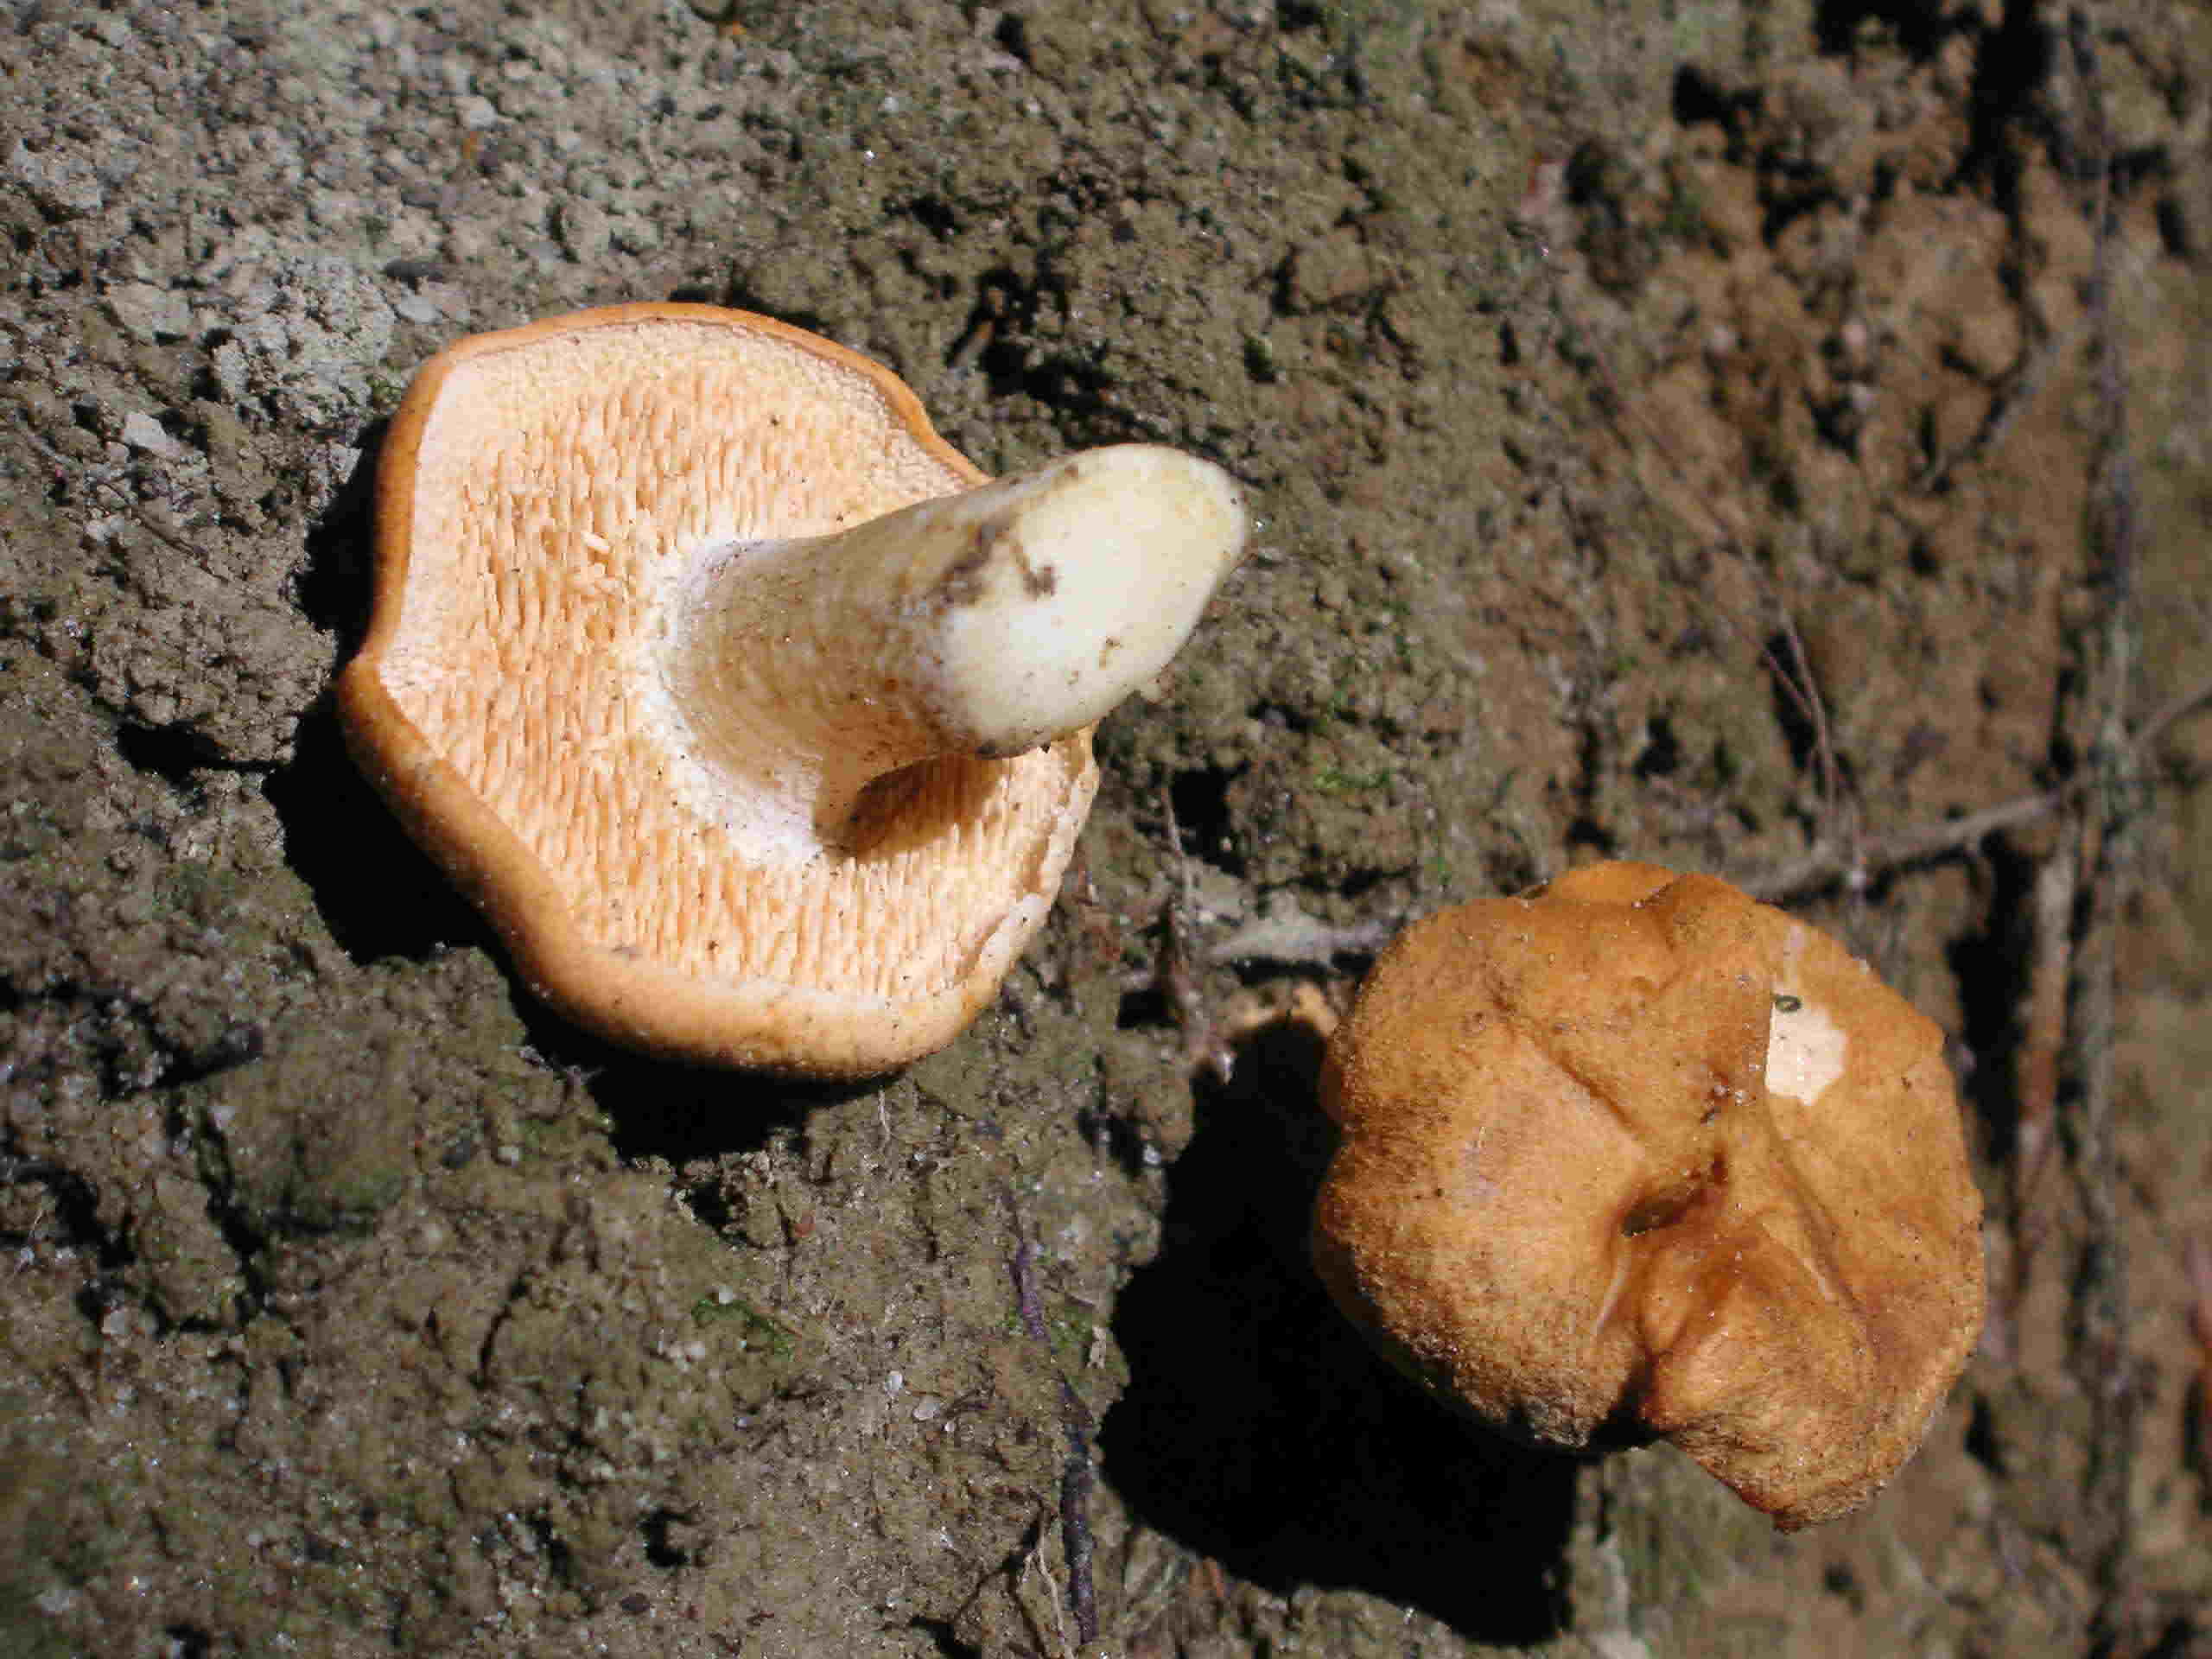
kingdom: Fungi
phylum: Basidiomycota
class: Agaricomycetes
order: Cantharellales
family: Hydnaceae
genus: Hydnum
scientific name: Hydnum ellipsosporum
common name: tandet pigsvamp
